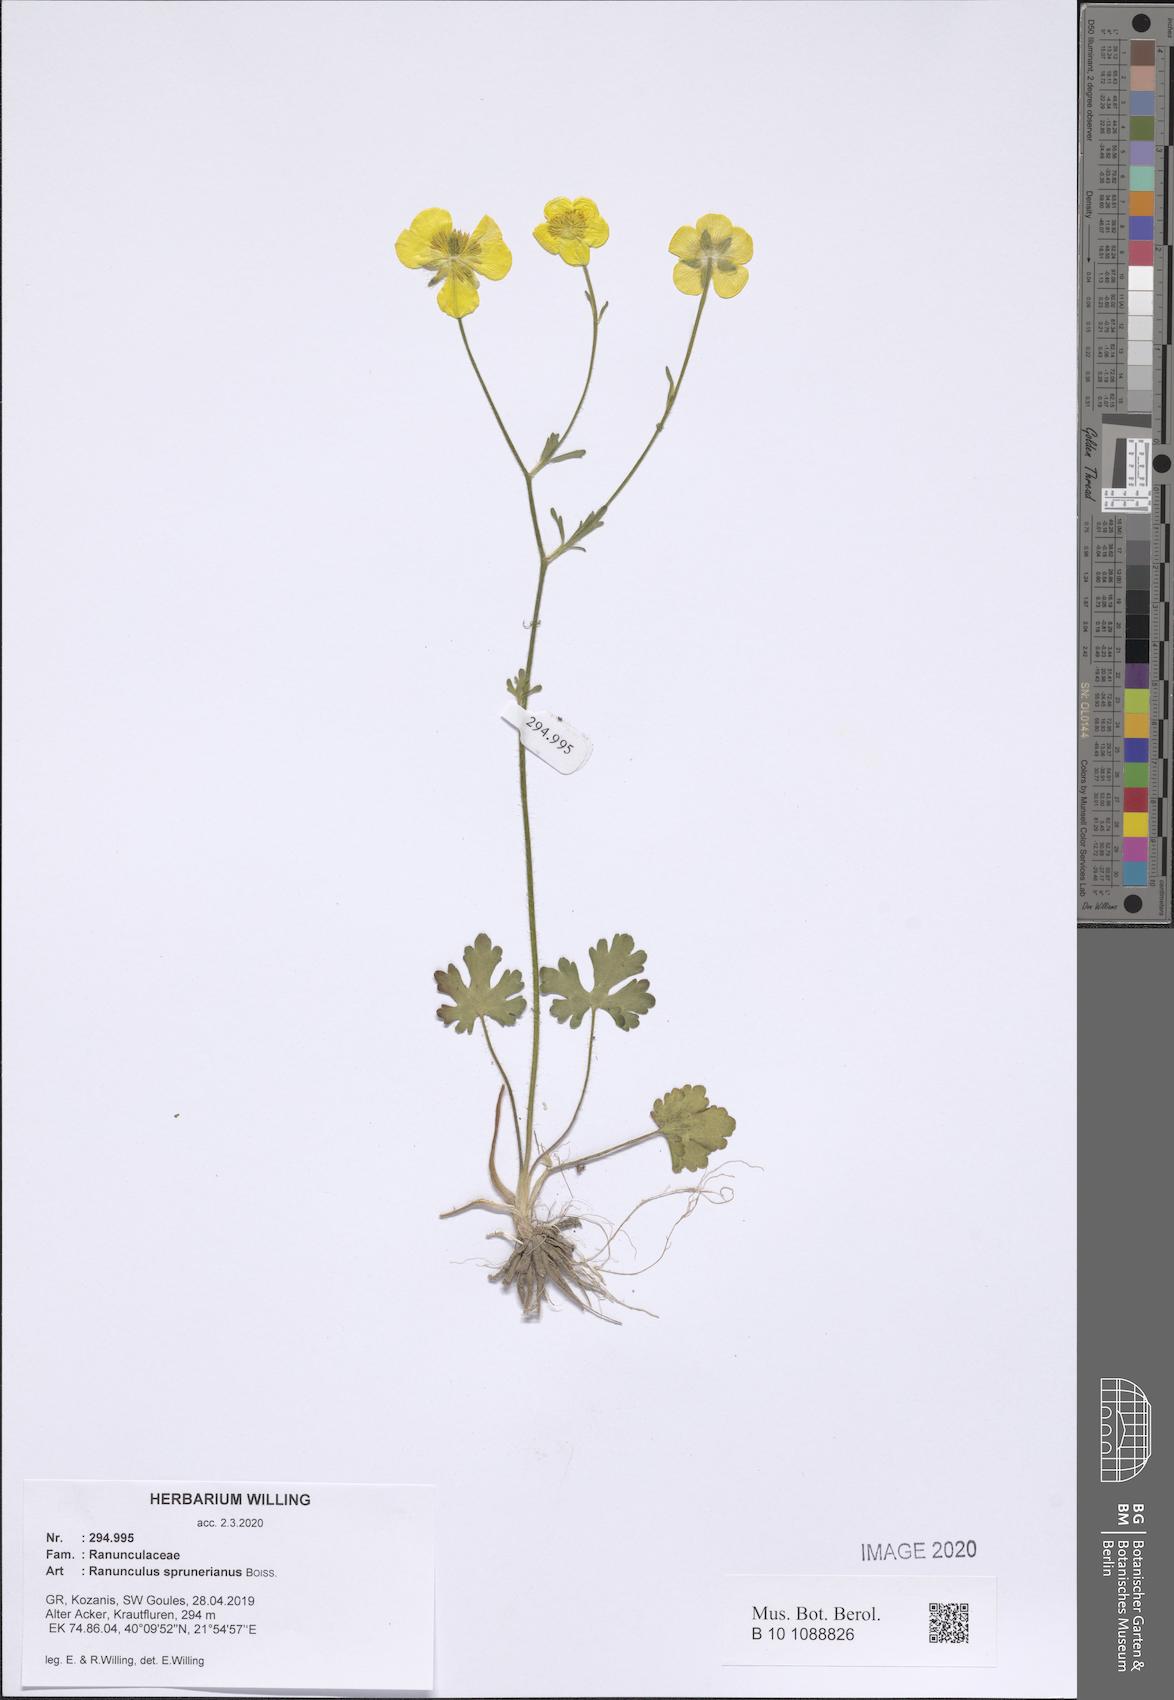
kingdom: Plantae
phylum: Tracheophyta
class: Magnoliopsida
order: Ranunculales
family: Ranunculaceae
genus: Ranunculus
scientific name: Ranunculus sprunerianus
